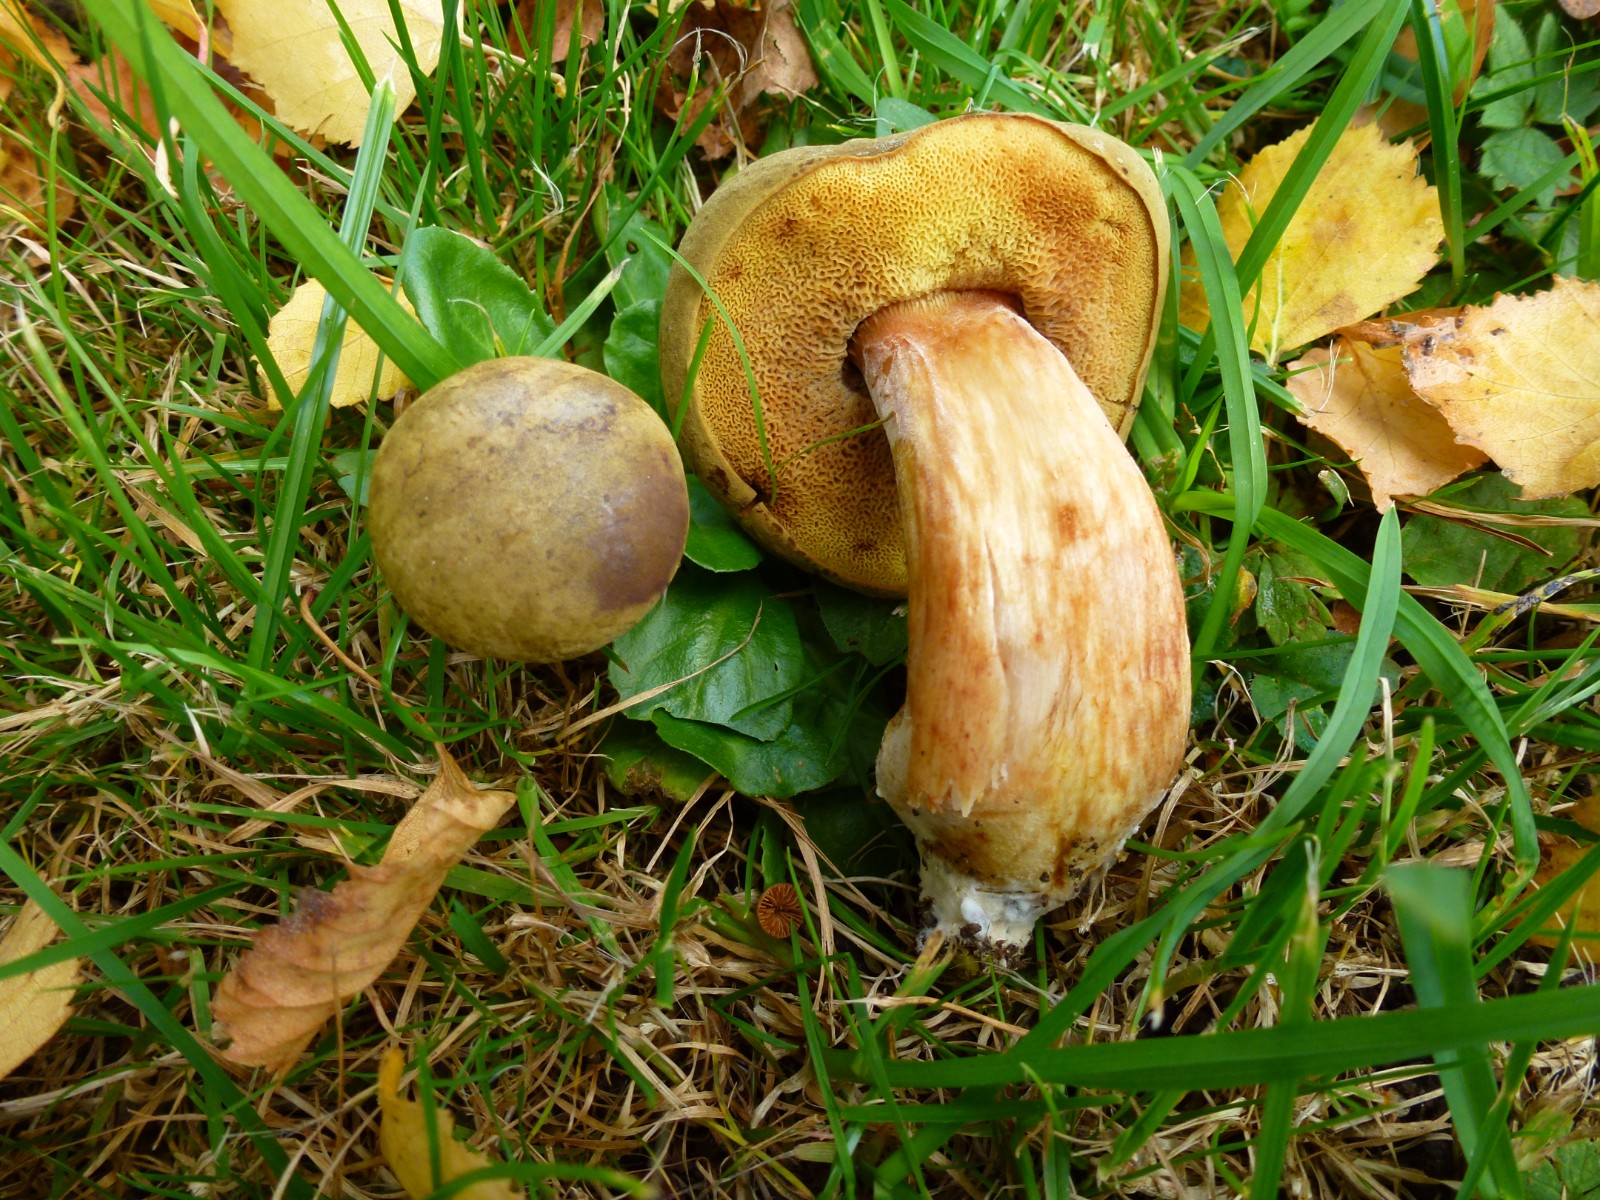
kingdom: Fungi
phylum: Basidiomycota
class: Agaricomycetes
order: Boletales
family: Boletaceae
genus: Xerocomus
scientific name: Xerocomus
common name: filtrørhat
